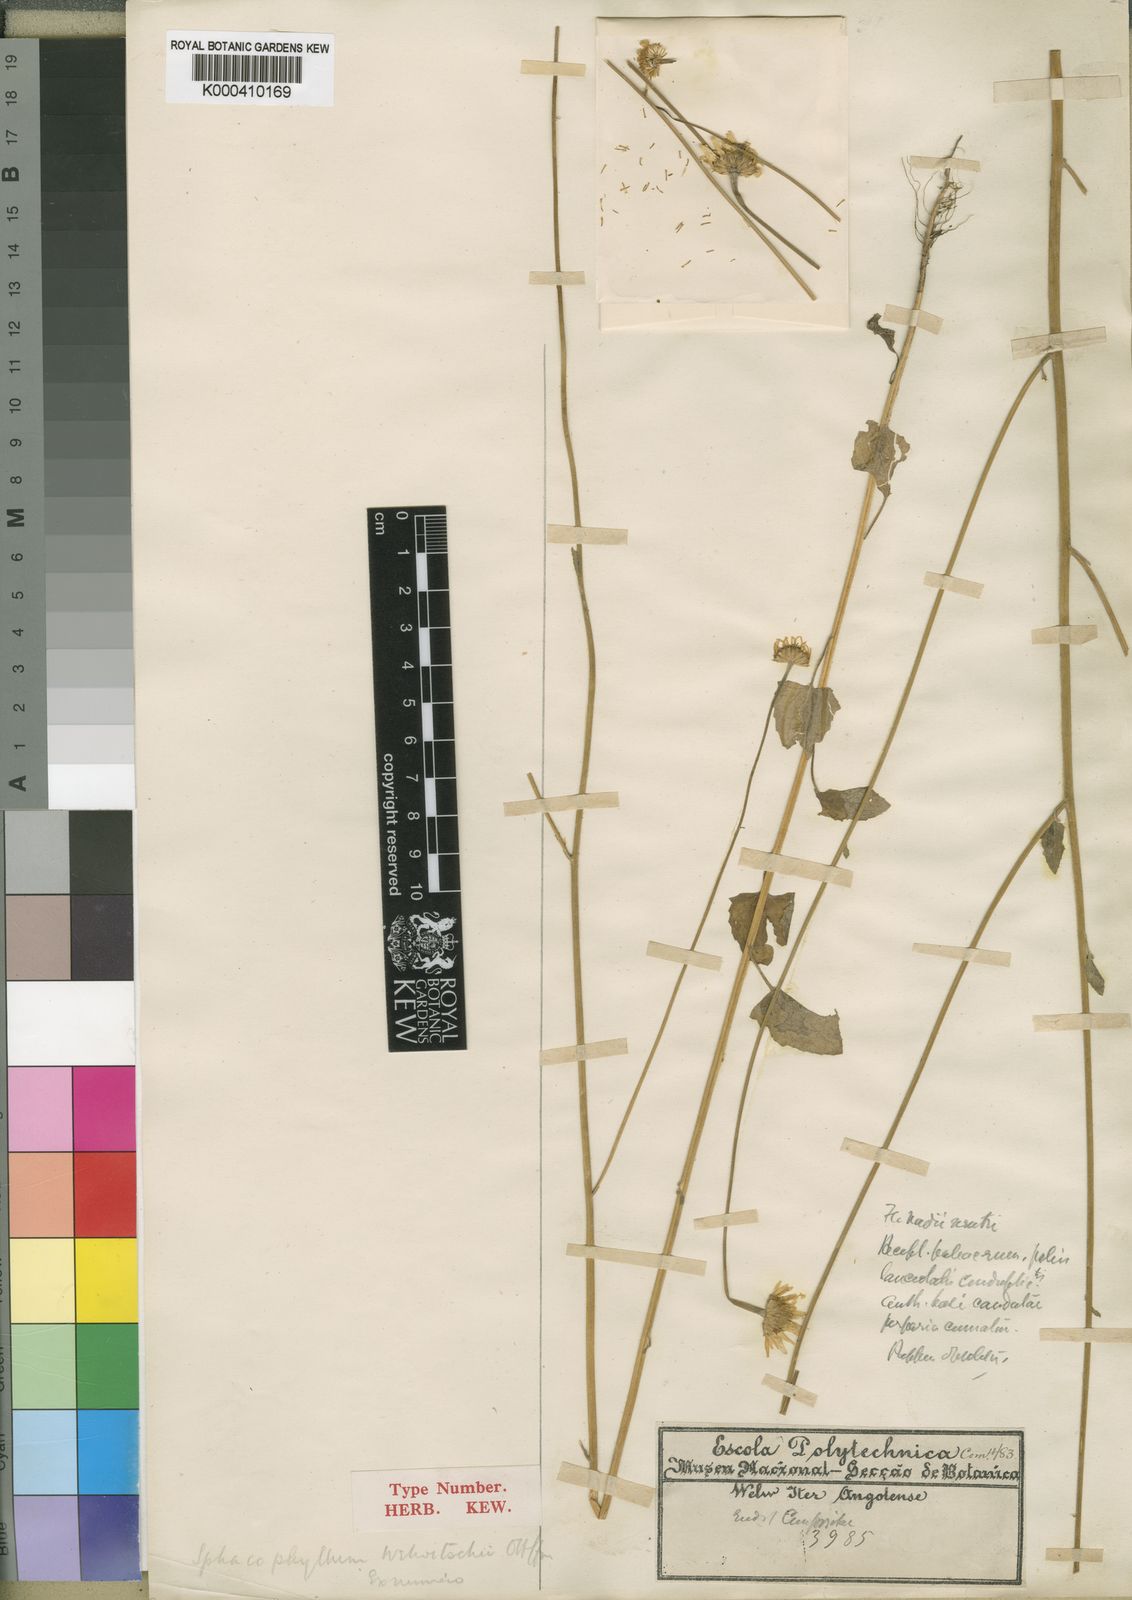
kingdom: Plantae
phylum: Tracheophyta
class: Magnoliopsida
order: Asterales
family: Asteraceae
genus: Anisopappus
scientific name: Anisopappus chinensis
